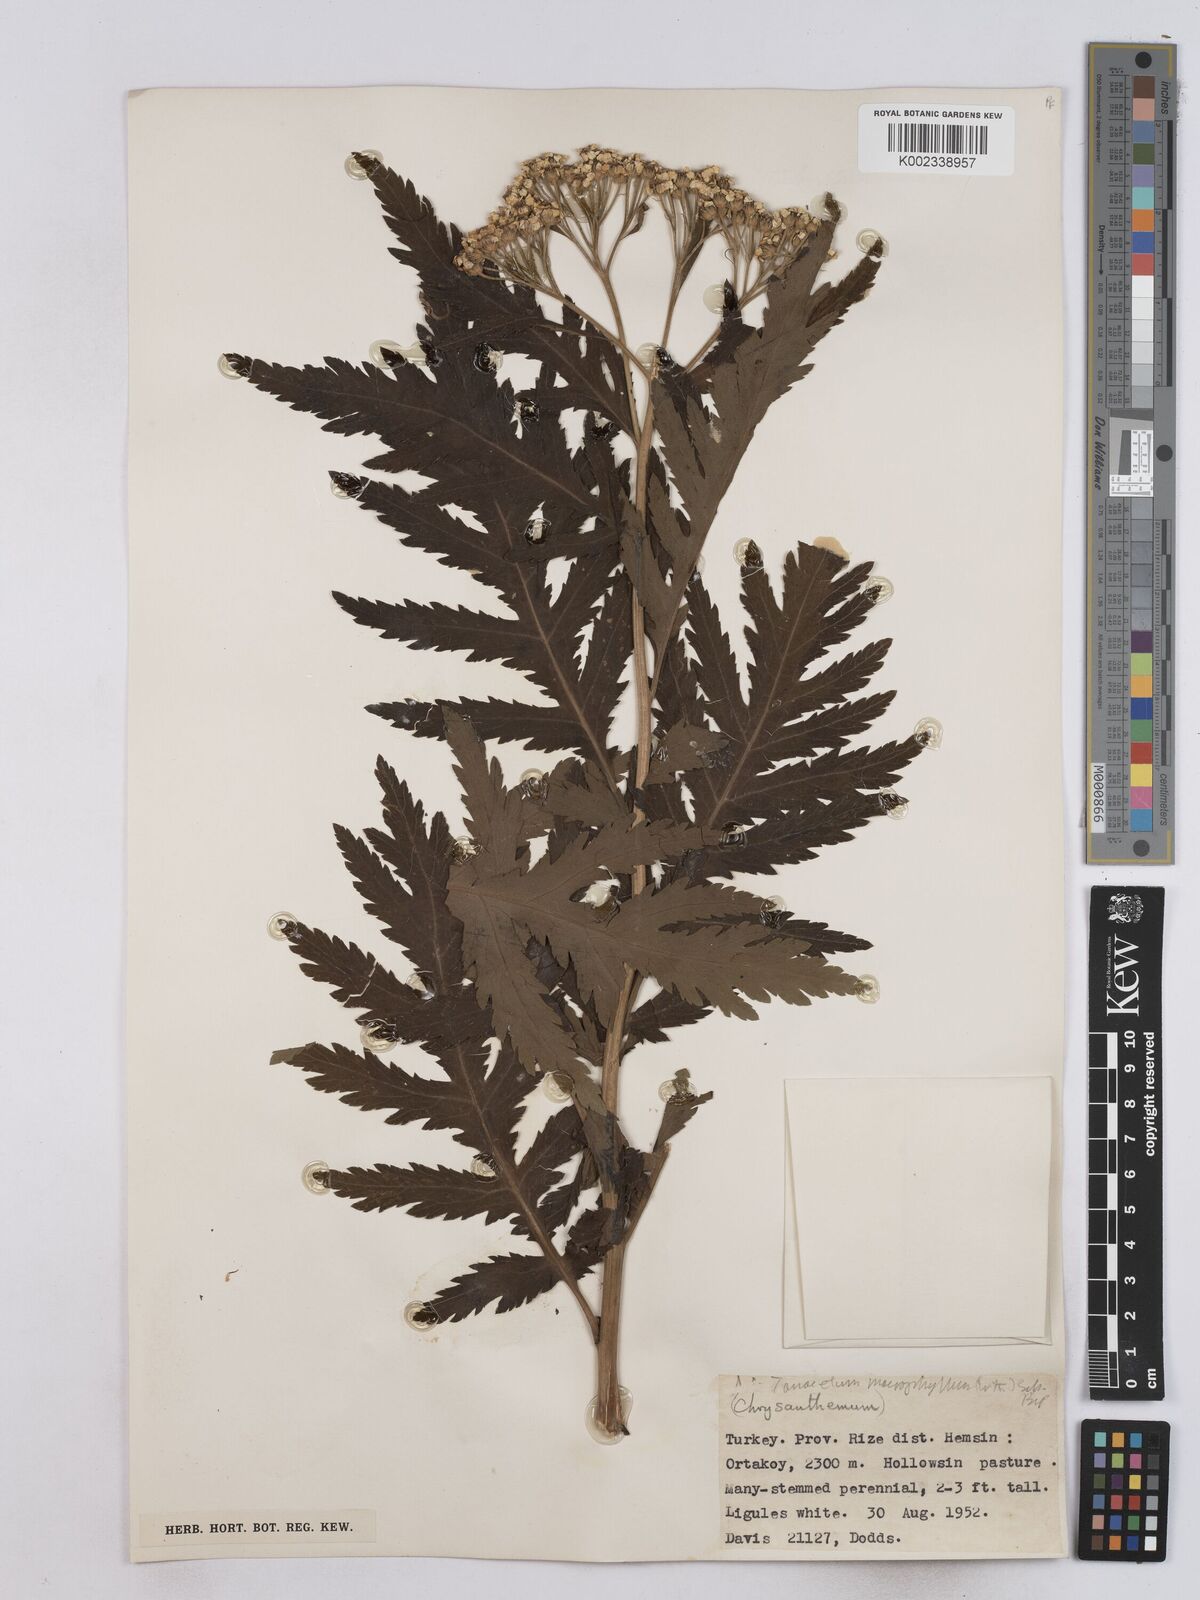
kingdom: Plantae
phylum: Tracheophyta
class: Magnoliopsida
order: Asterales
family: Asteraceae
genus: Tanacetum
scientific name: Tanacetum macrophyllum
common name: Rayed tansy
